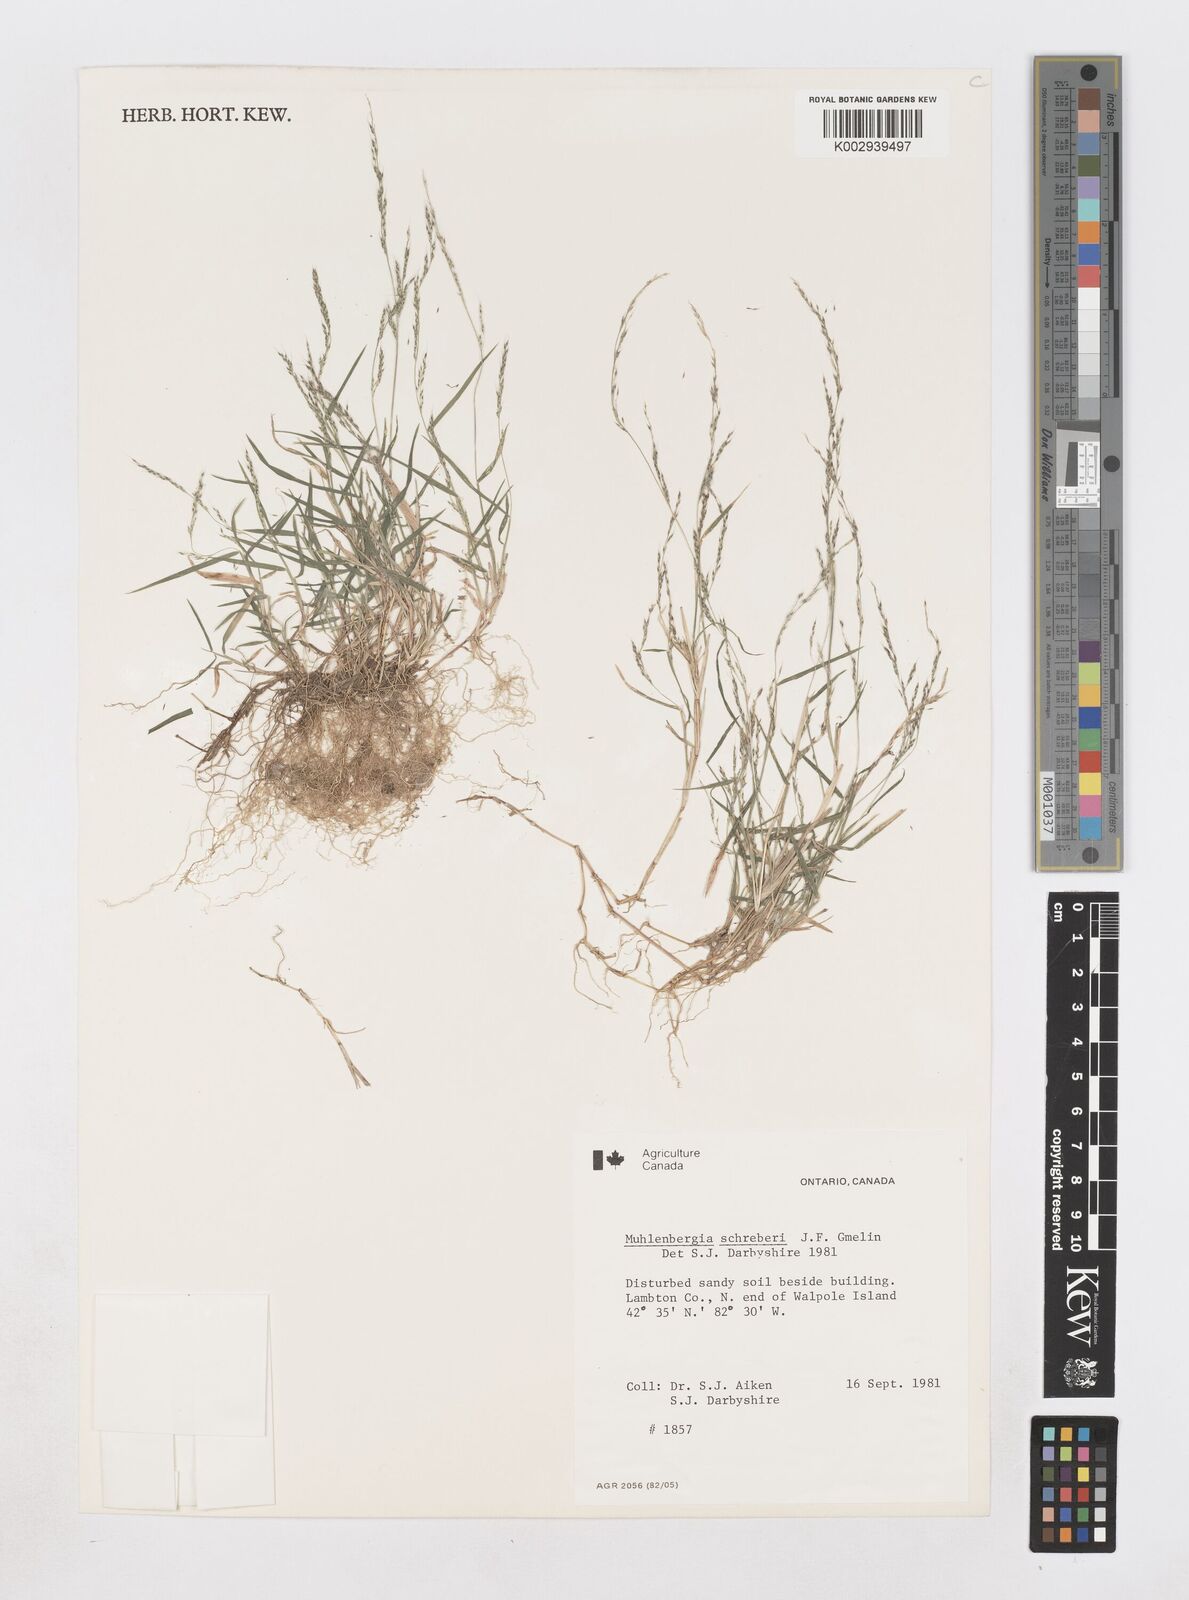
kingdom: Plantae
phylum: Tracheophyta
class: Liliopsida
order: Poales
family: Poaceae
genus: Muhlenbergia
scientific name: Muhlenbergia schreberi
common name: Nimblewill
